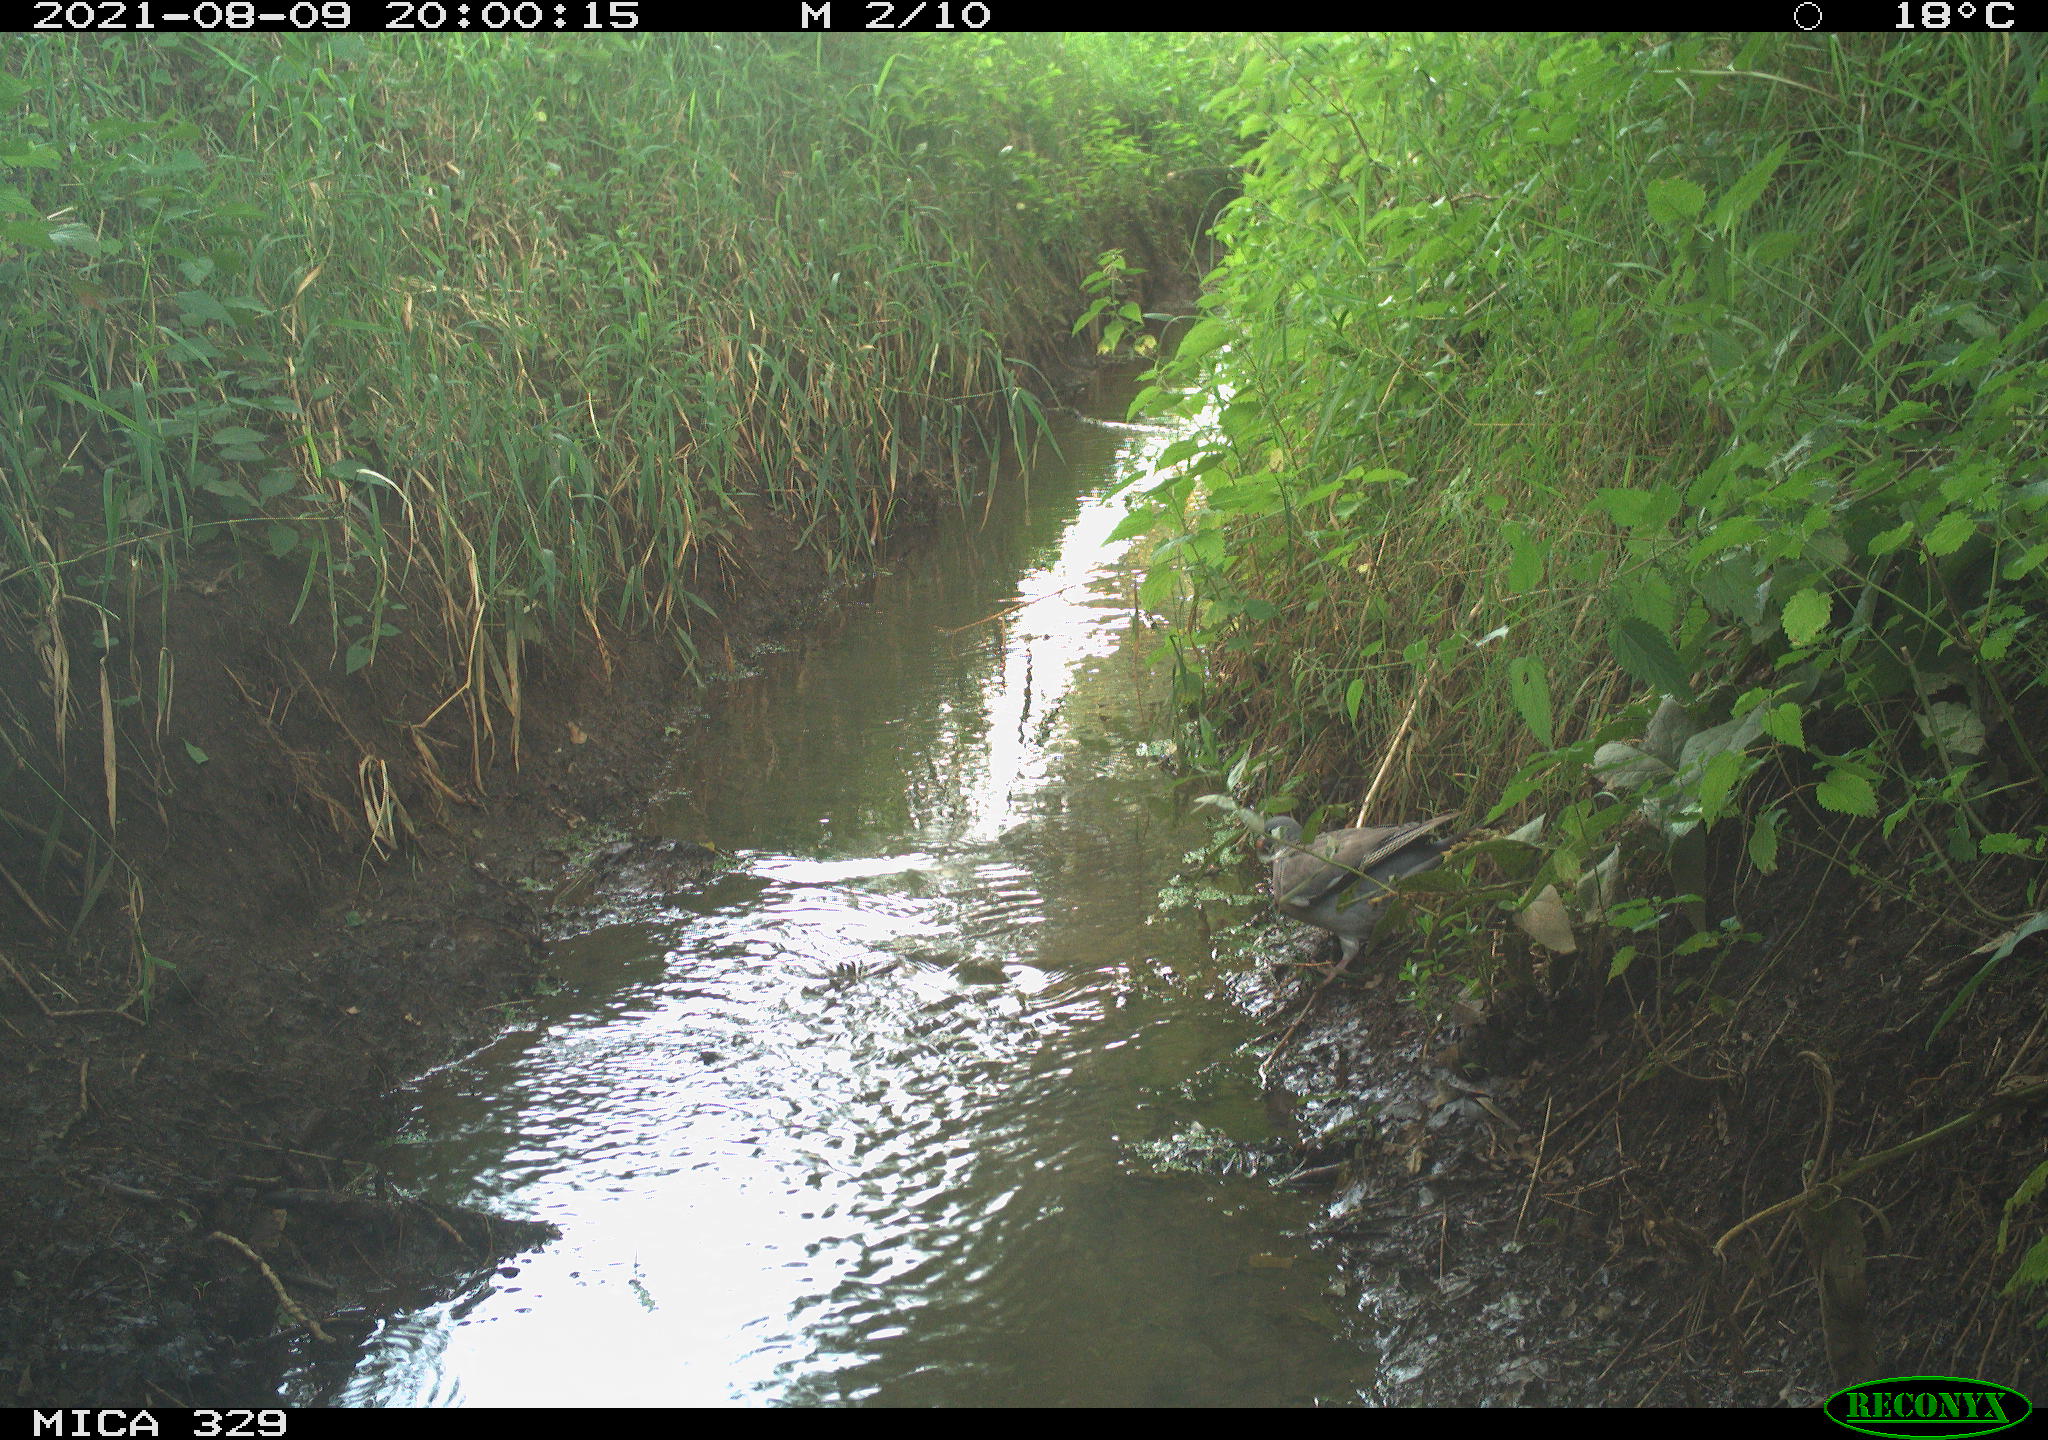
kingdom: Animalia
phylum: Chordata
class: Aves
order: Columbiformes
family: Columbidae
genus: Columba
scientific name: Columba palumbus
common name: Common wood pigeon
